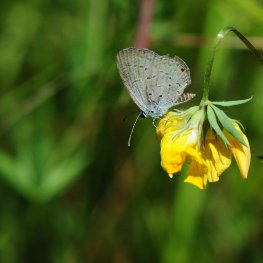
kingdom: Animalia
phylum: Arthropoda
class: Insecta
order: Lepidoptera
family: Lycaenidae
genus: Elkalyce
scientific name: Elkalyce comyntas
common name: Eastern Tailed-Blue
